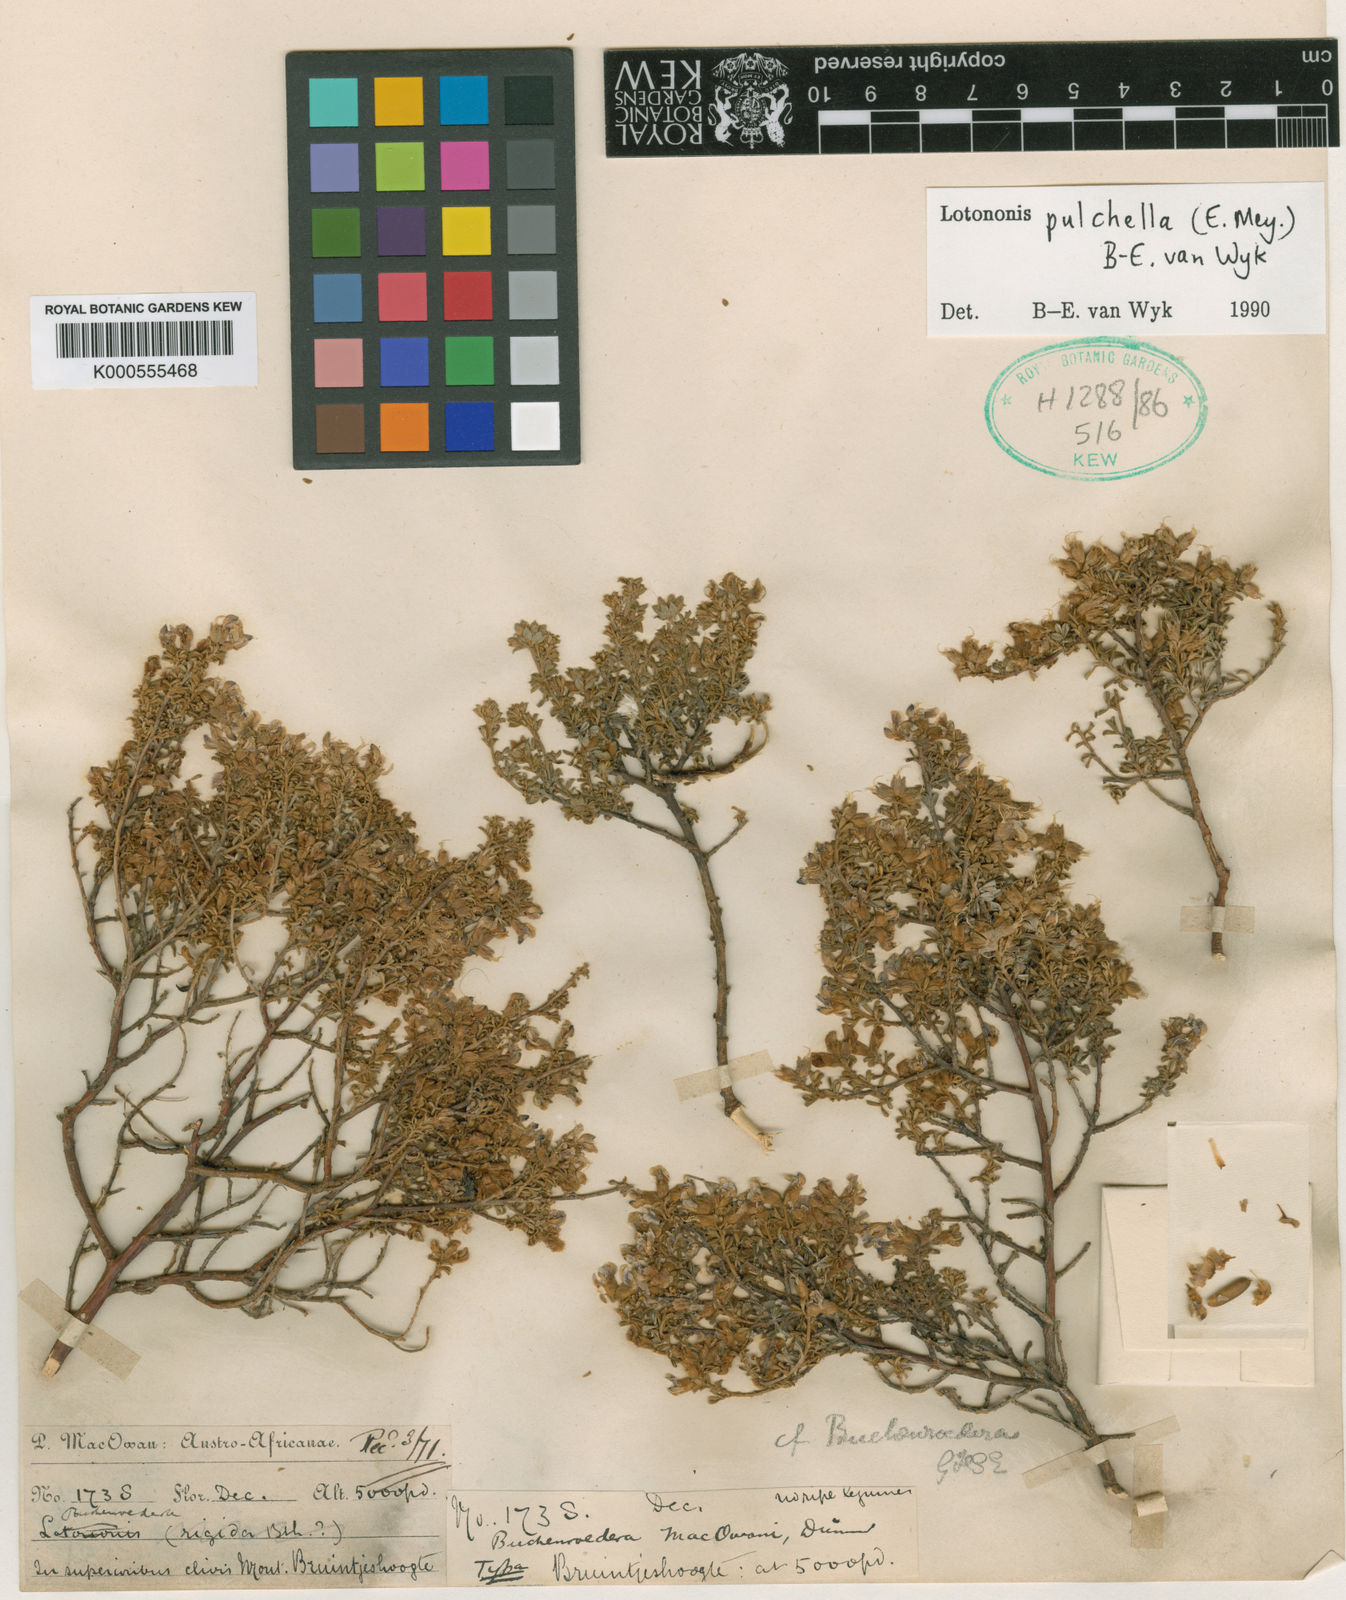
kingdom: Plantae
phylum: Tracheophyta
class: Magnoliopsida
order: Fabales
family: Fabaceae
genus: Lotononis
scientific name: Lotononis pulchella
